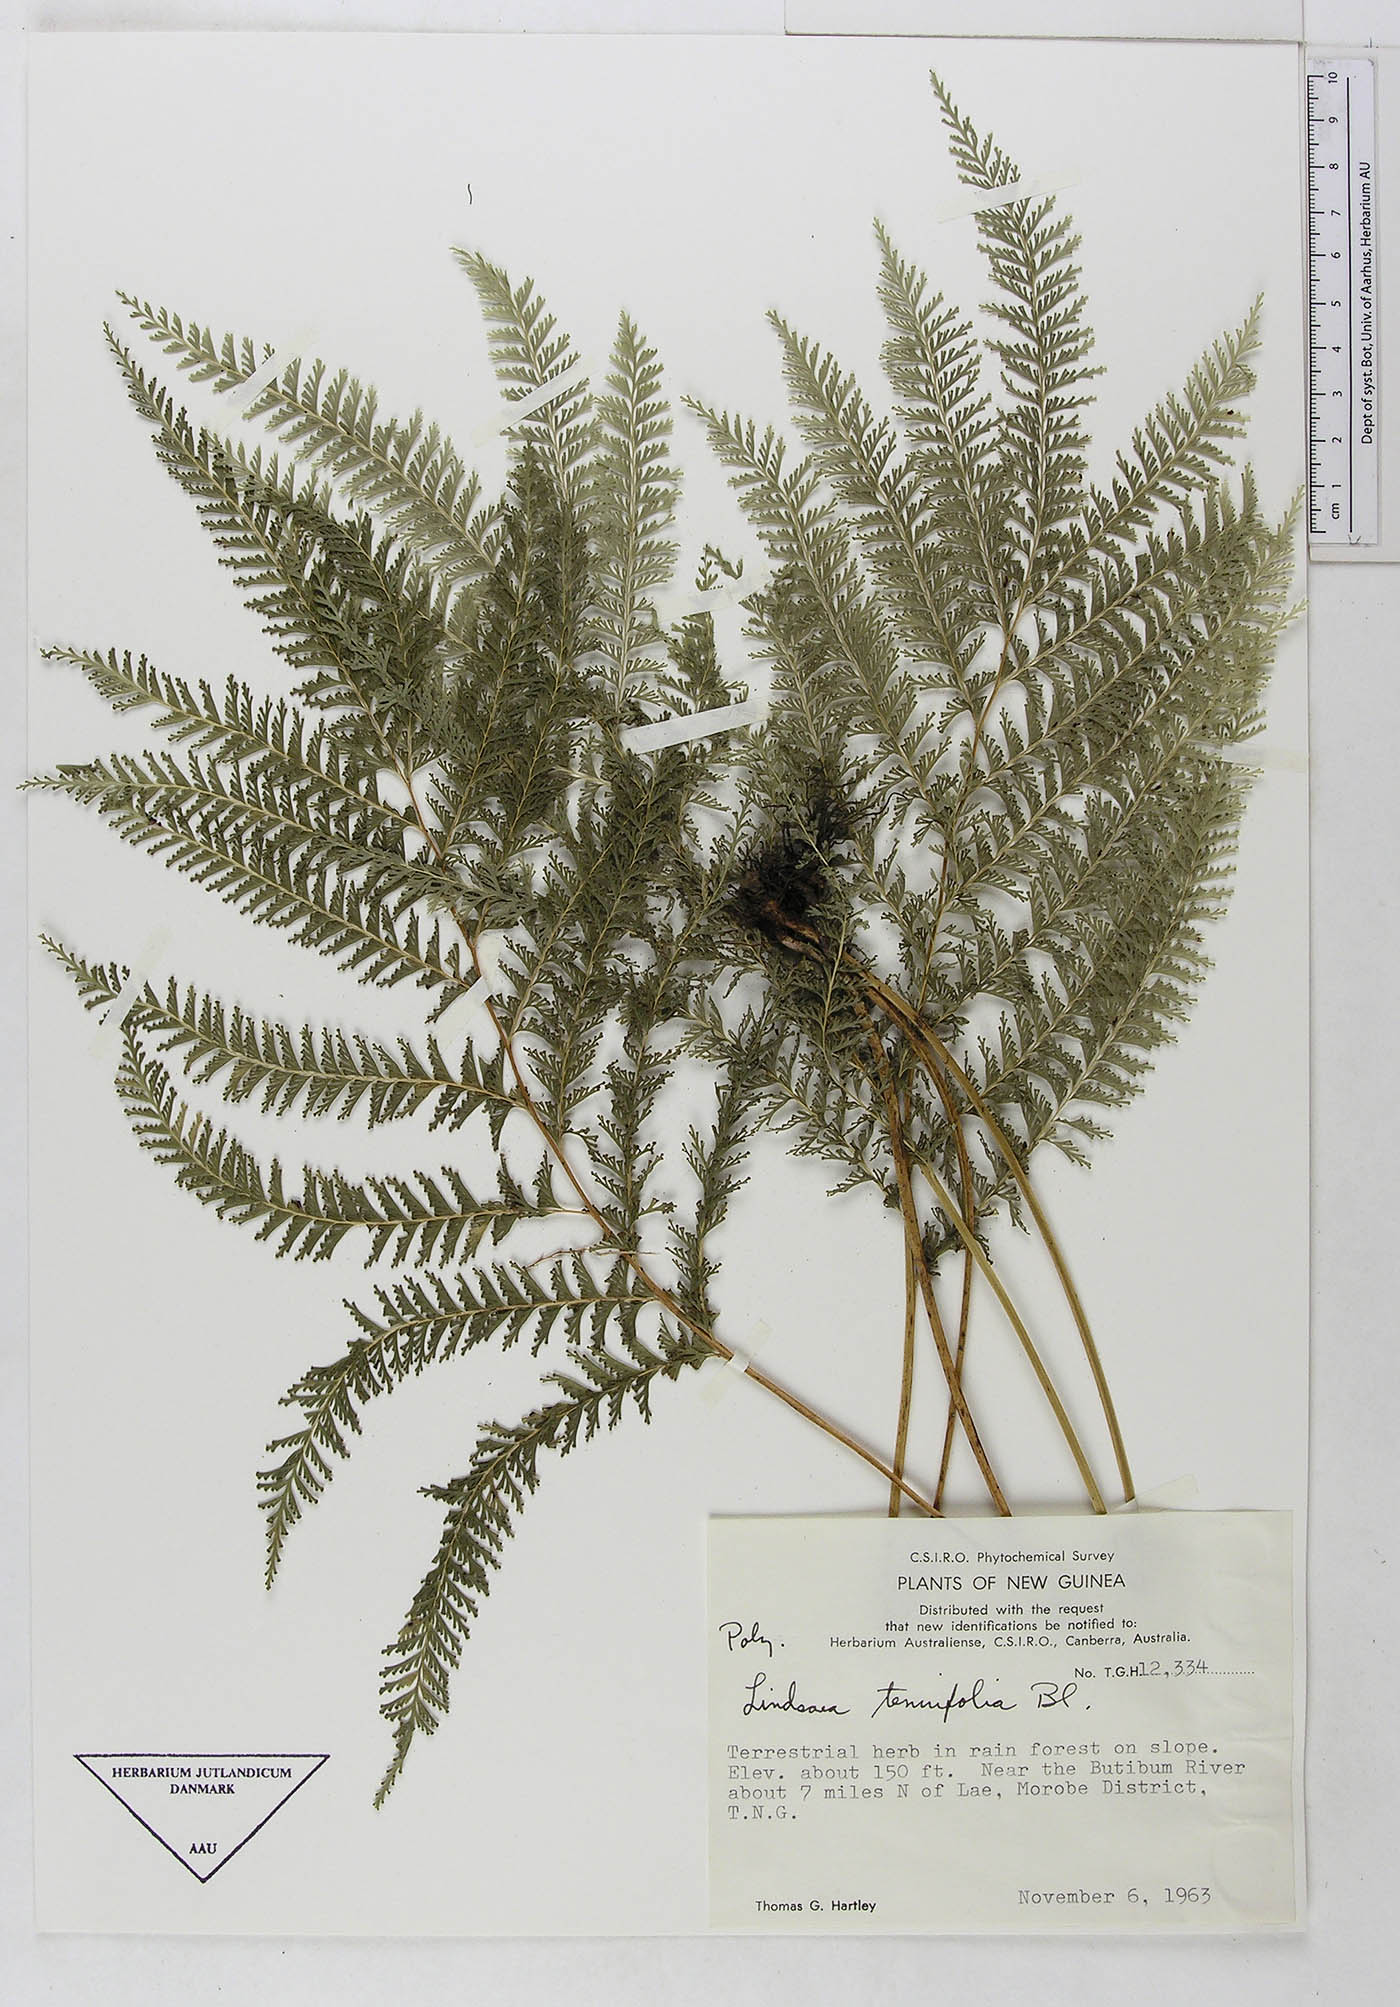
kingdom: Plantae
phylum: Tracheophyta
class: Polypodiopsida
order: Polypodiales
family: Dennstaedtiaceae
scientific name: Dennstaedtiaceae
